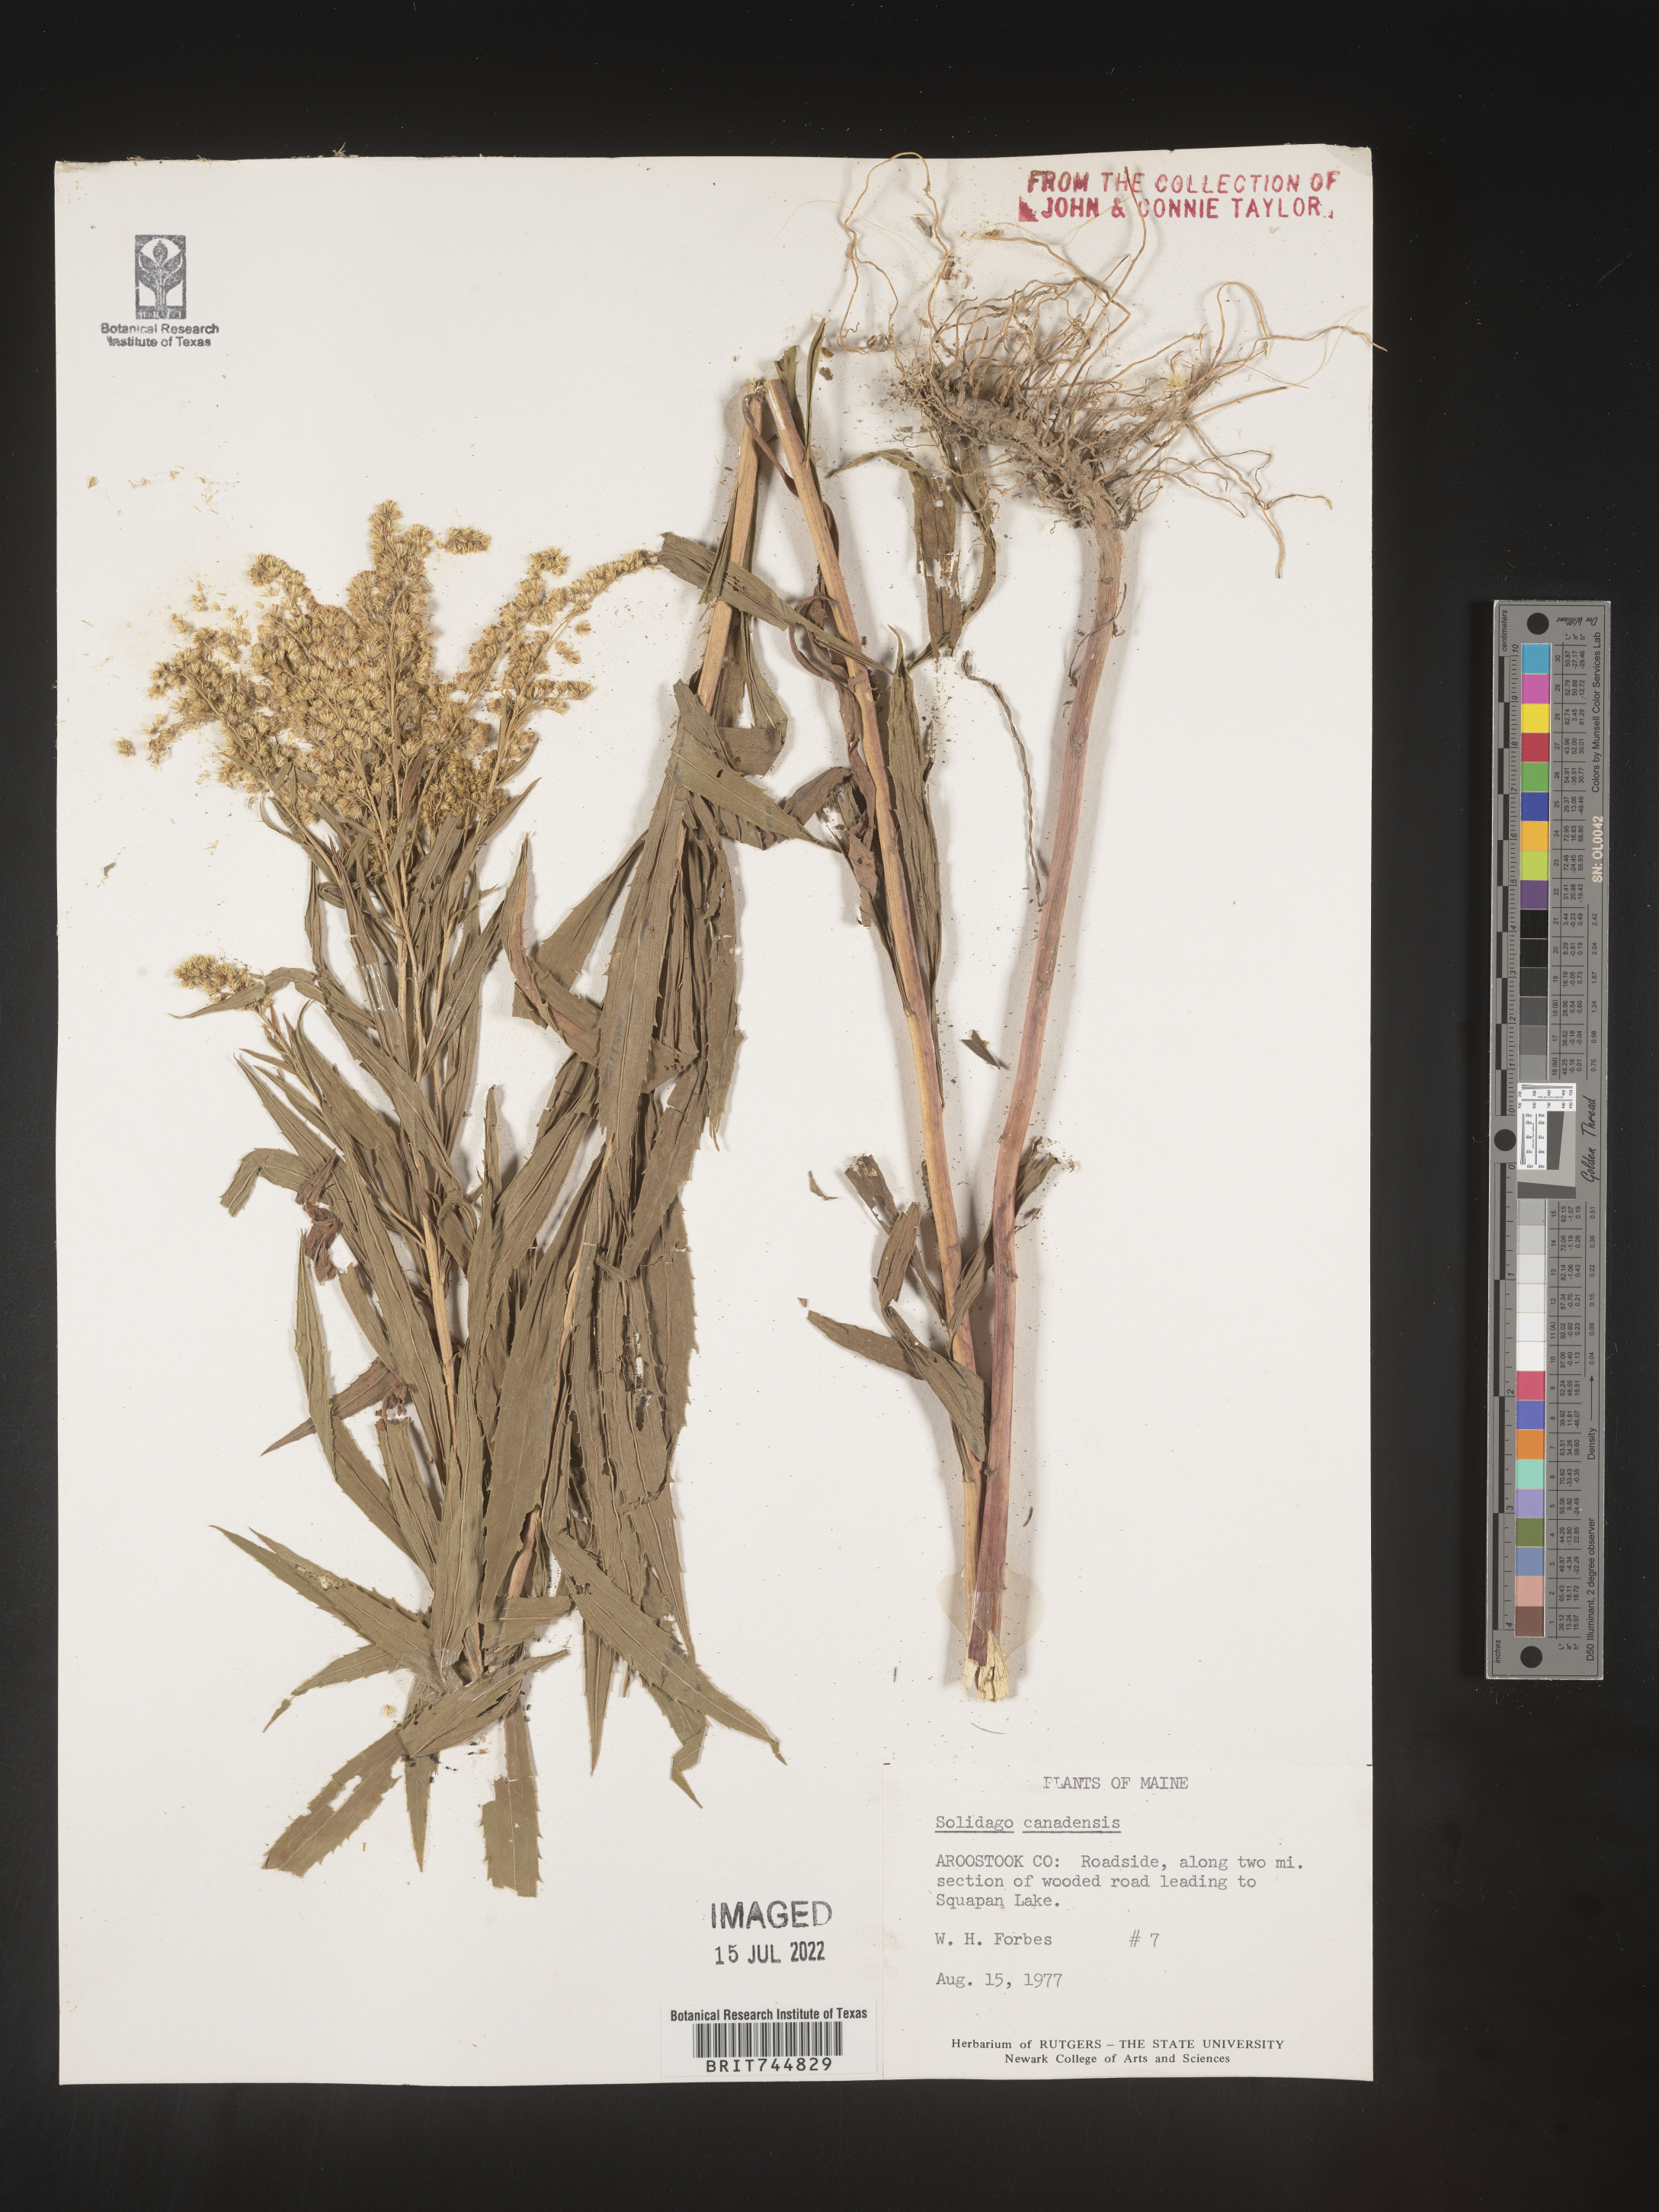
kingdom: Plantae
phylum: Tracheophyta
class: Magnoliopsida
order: Asterales
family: Asteraceae
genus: Solidago
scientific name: Solidago canadensis
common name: Canada goldenrod
